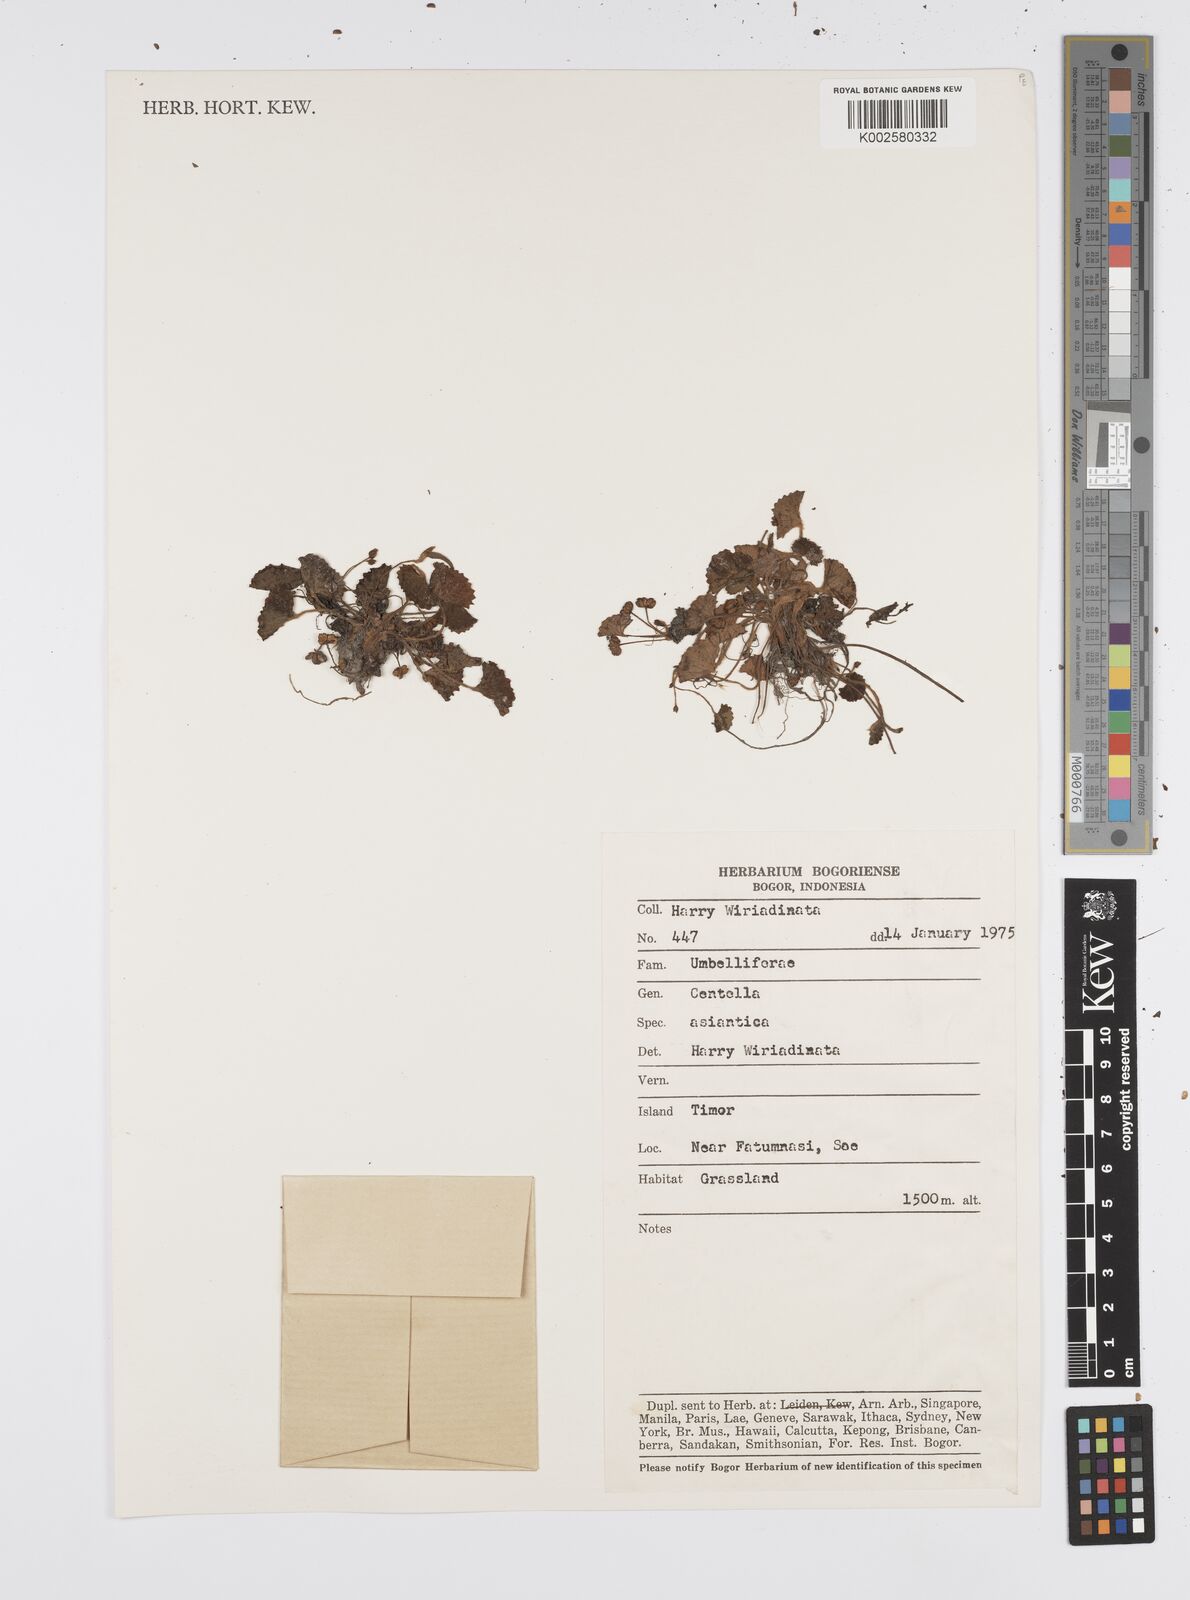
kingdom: Plantae
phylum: Tracheophyta
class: Magnoliopsida
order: Apiales
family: Apiaceae
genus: Centella
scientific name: Centella asiatica
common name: Spadeleaf
